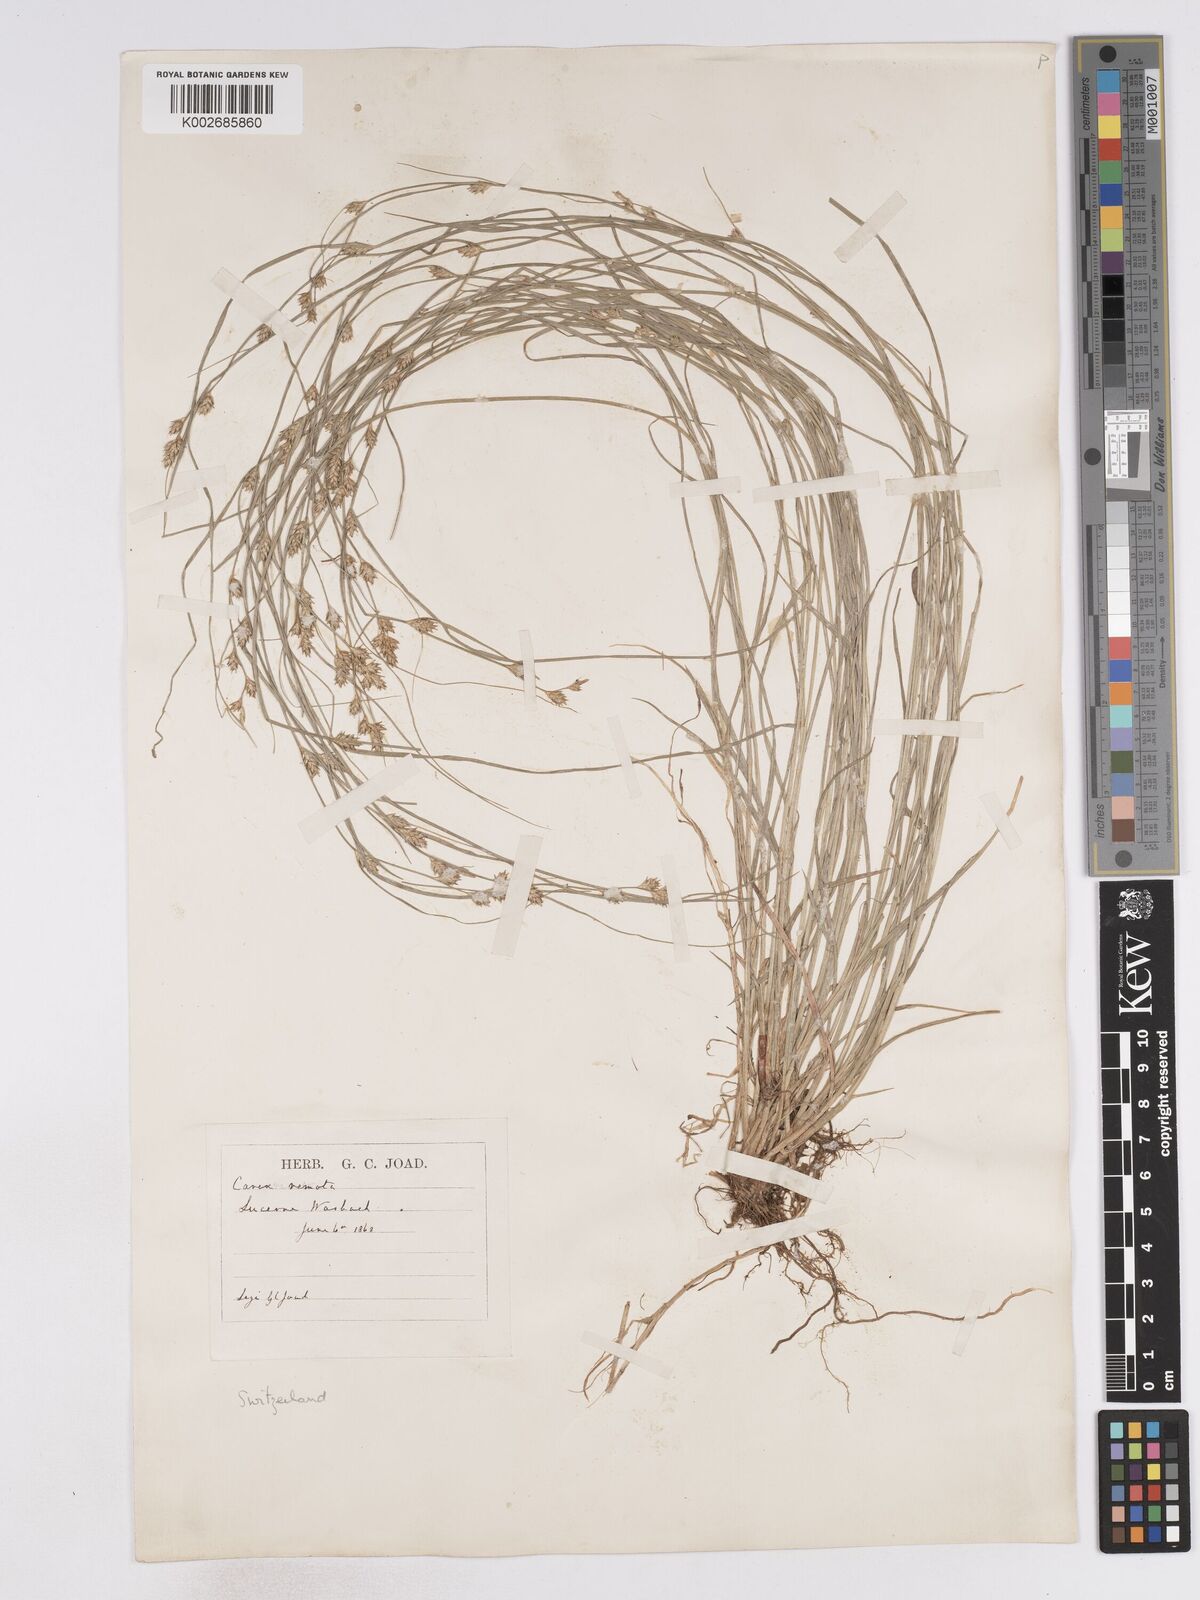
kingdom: Plantae
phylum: Tracheophyta
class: Liliopsida
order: Poales
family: Cyperaceae
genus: Carex
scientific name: Carex remota
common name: Remote sedge
